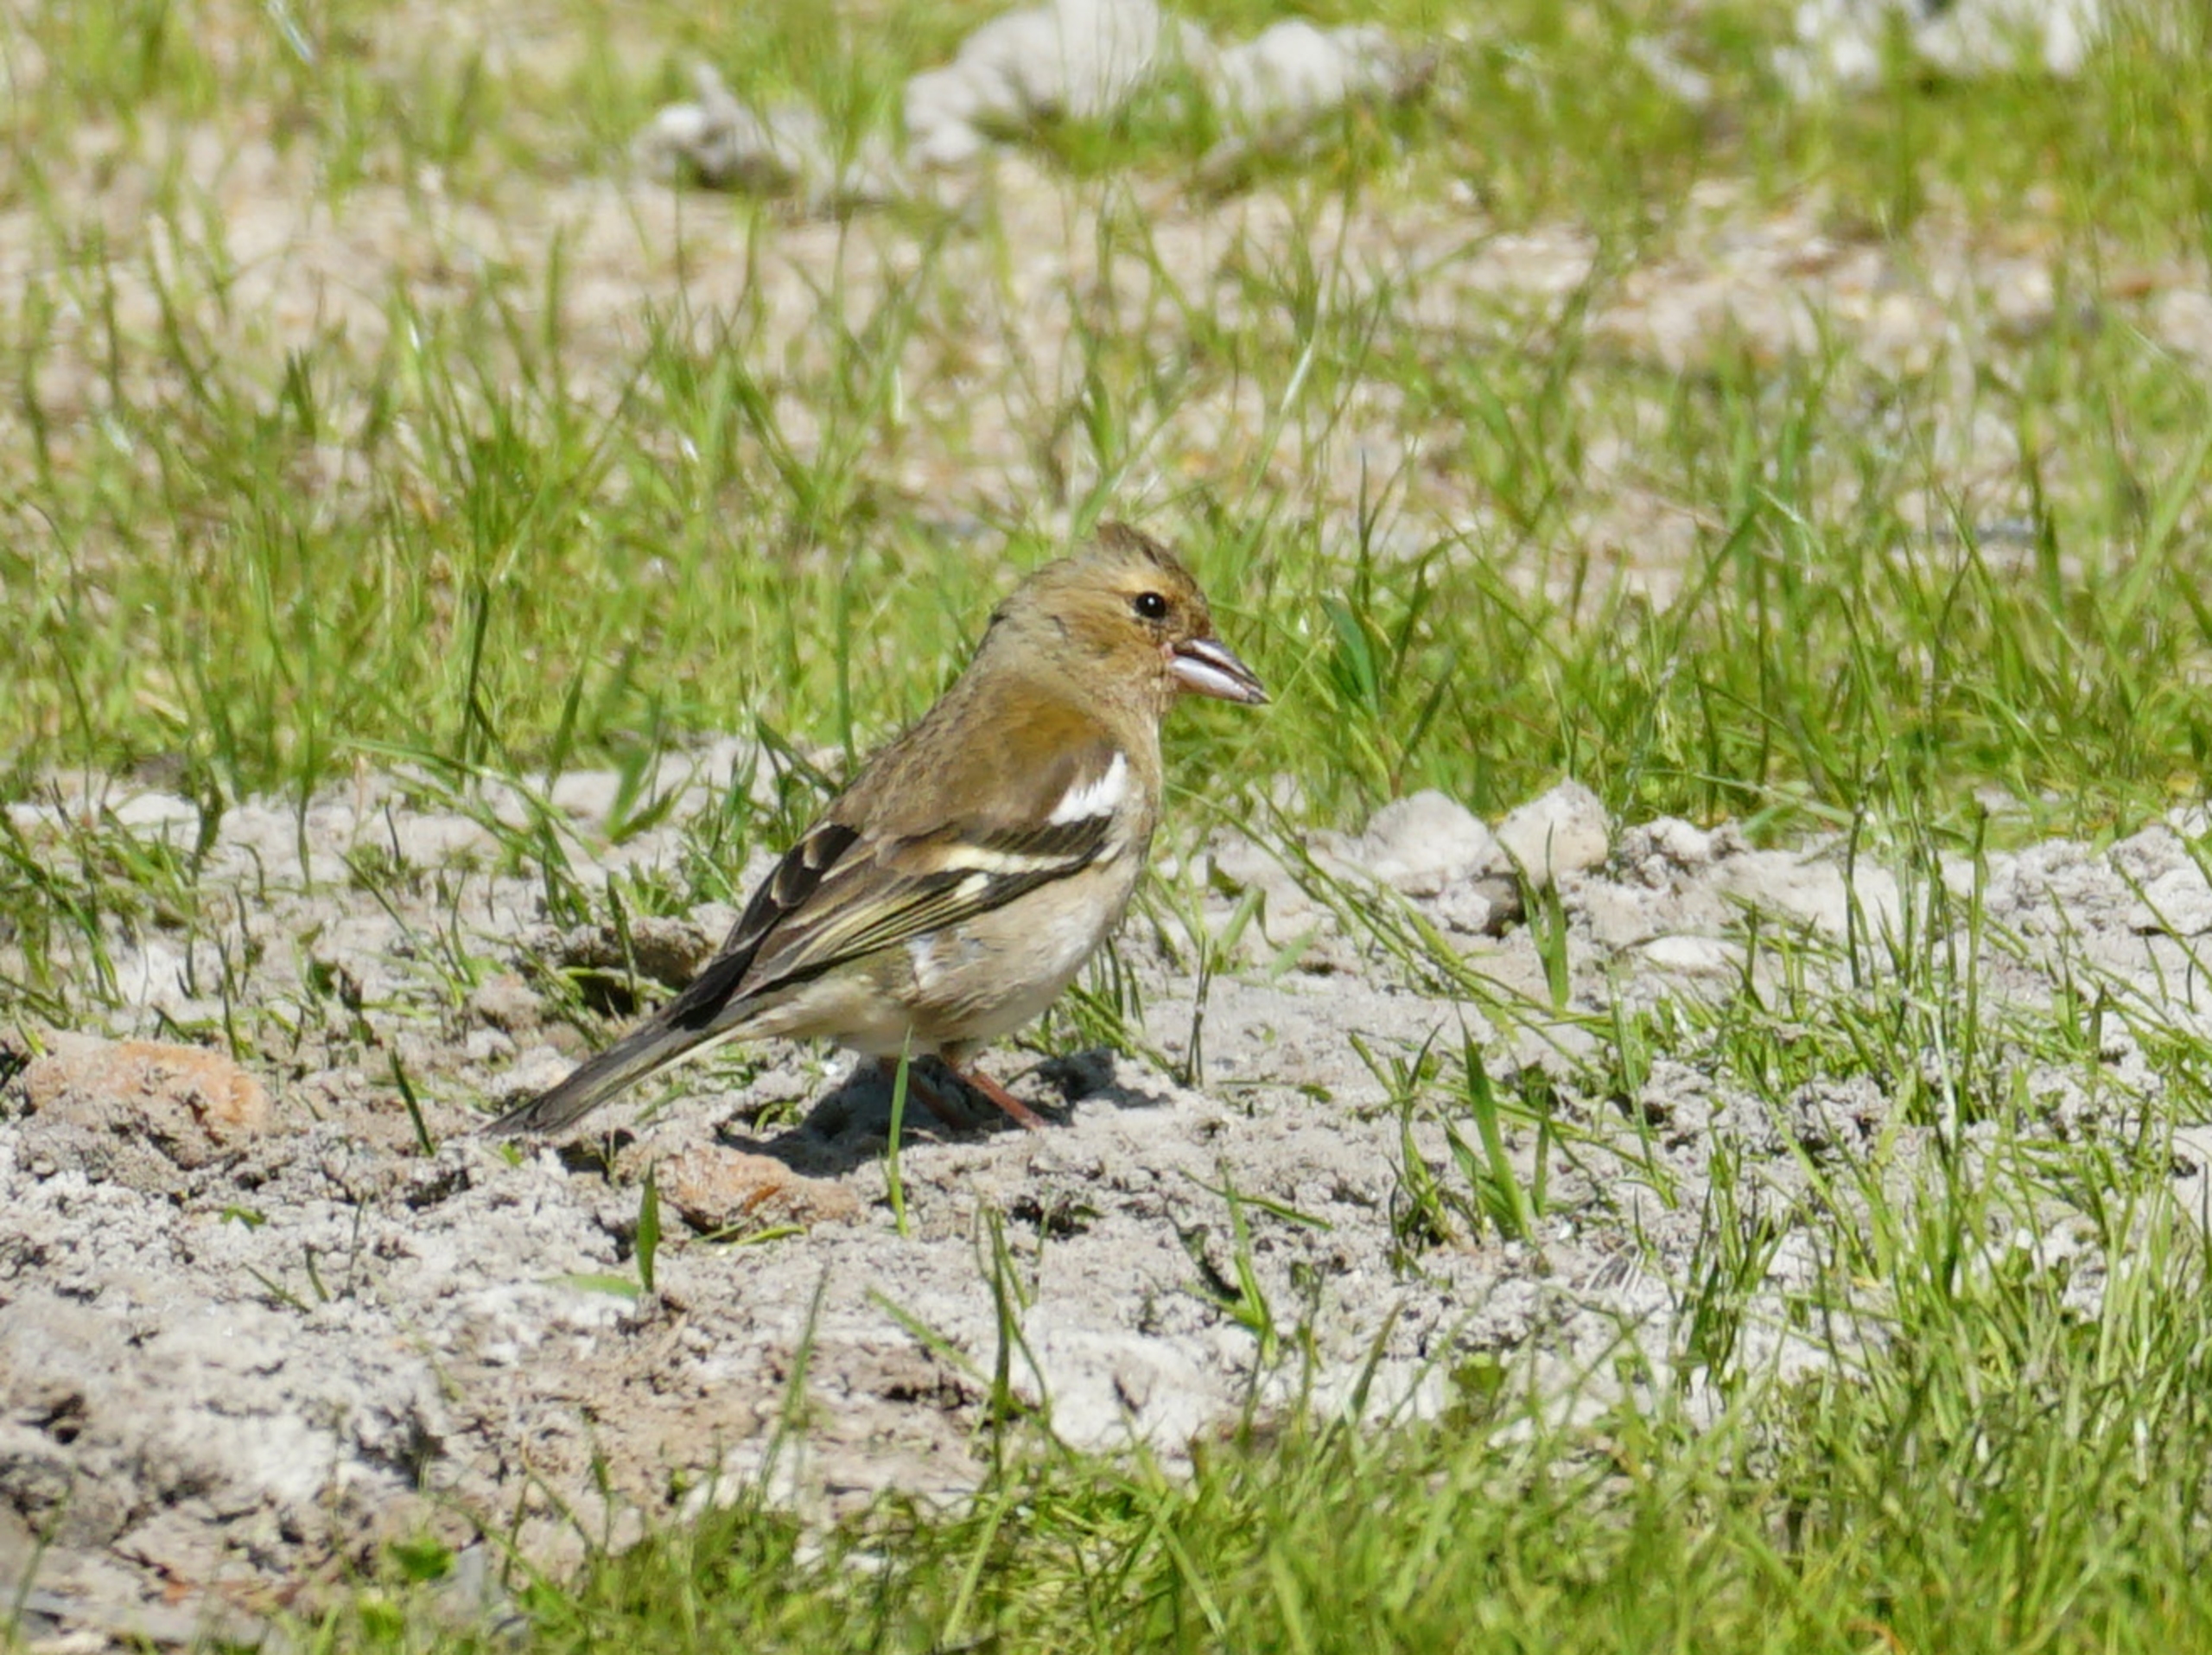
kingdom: Animalia
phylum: Chordata
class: Aves
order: Passeriformes
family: Fringillidae
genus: Fringilla
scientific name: Fringilla coelebs
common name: Bogfinke
